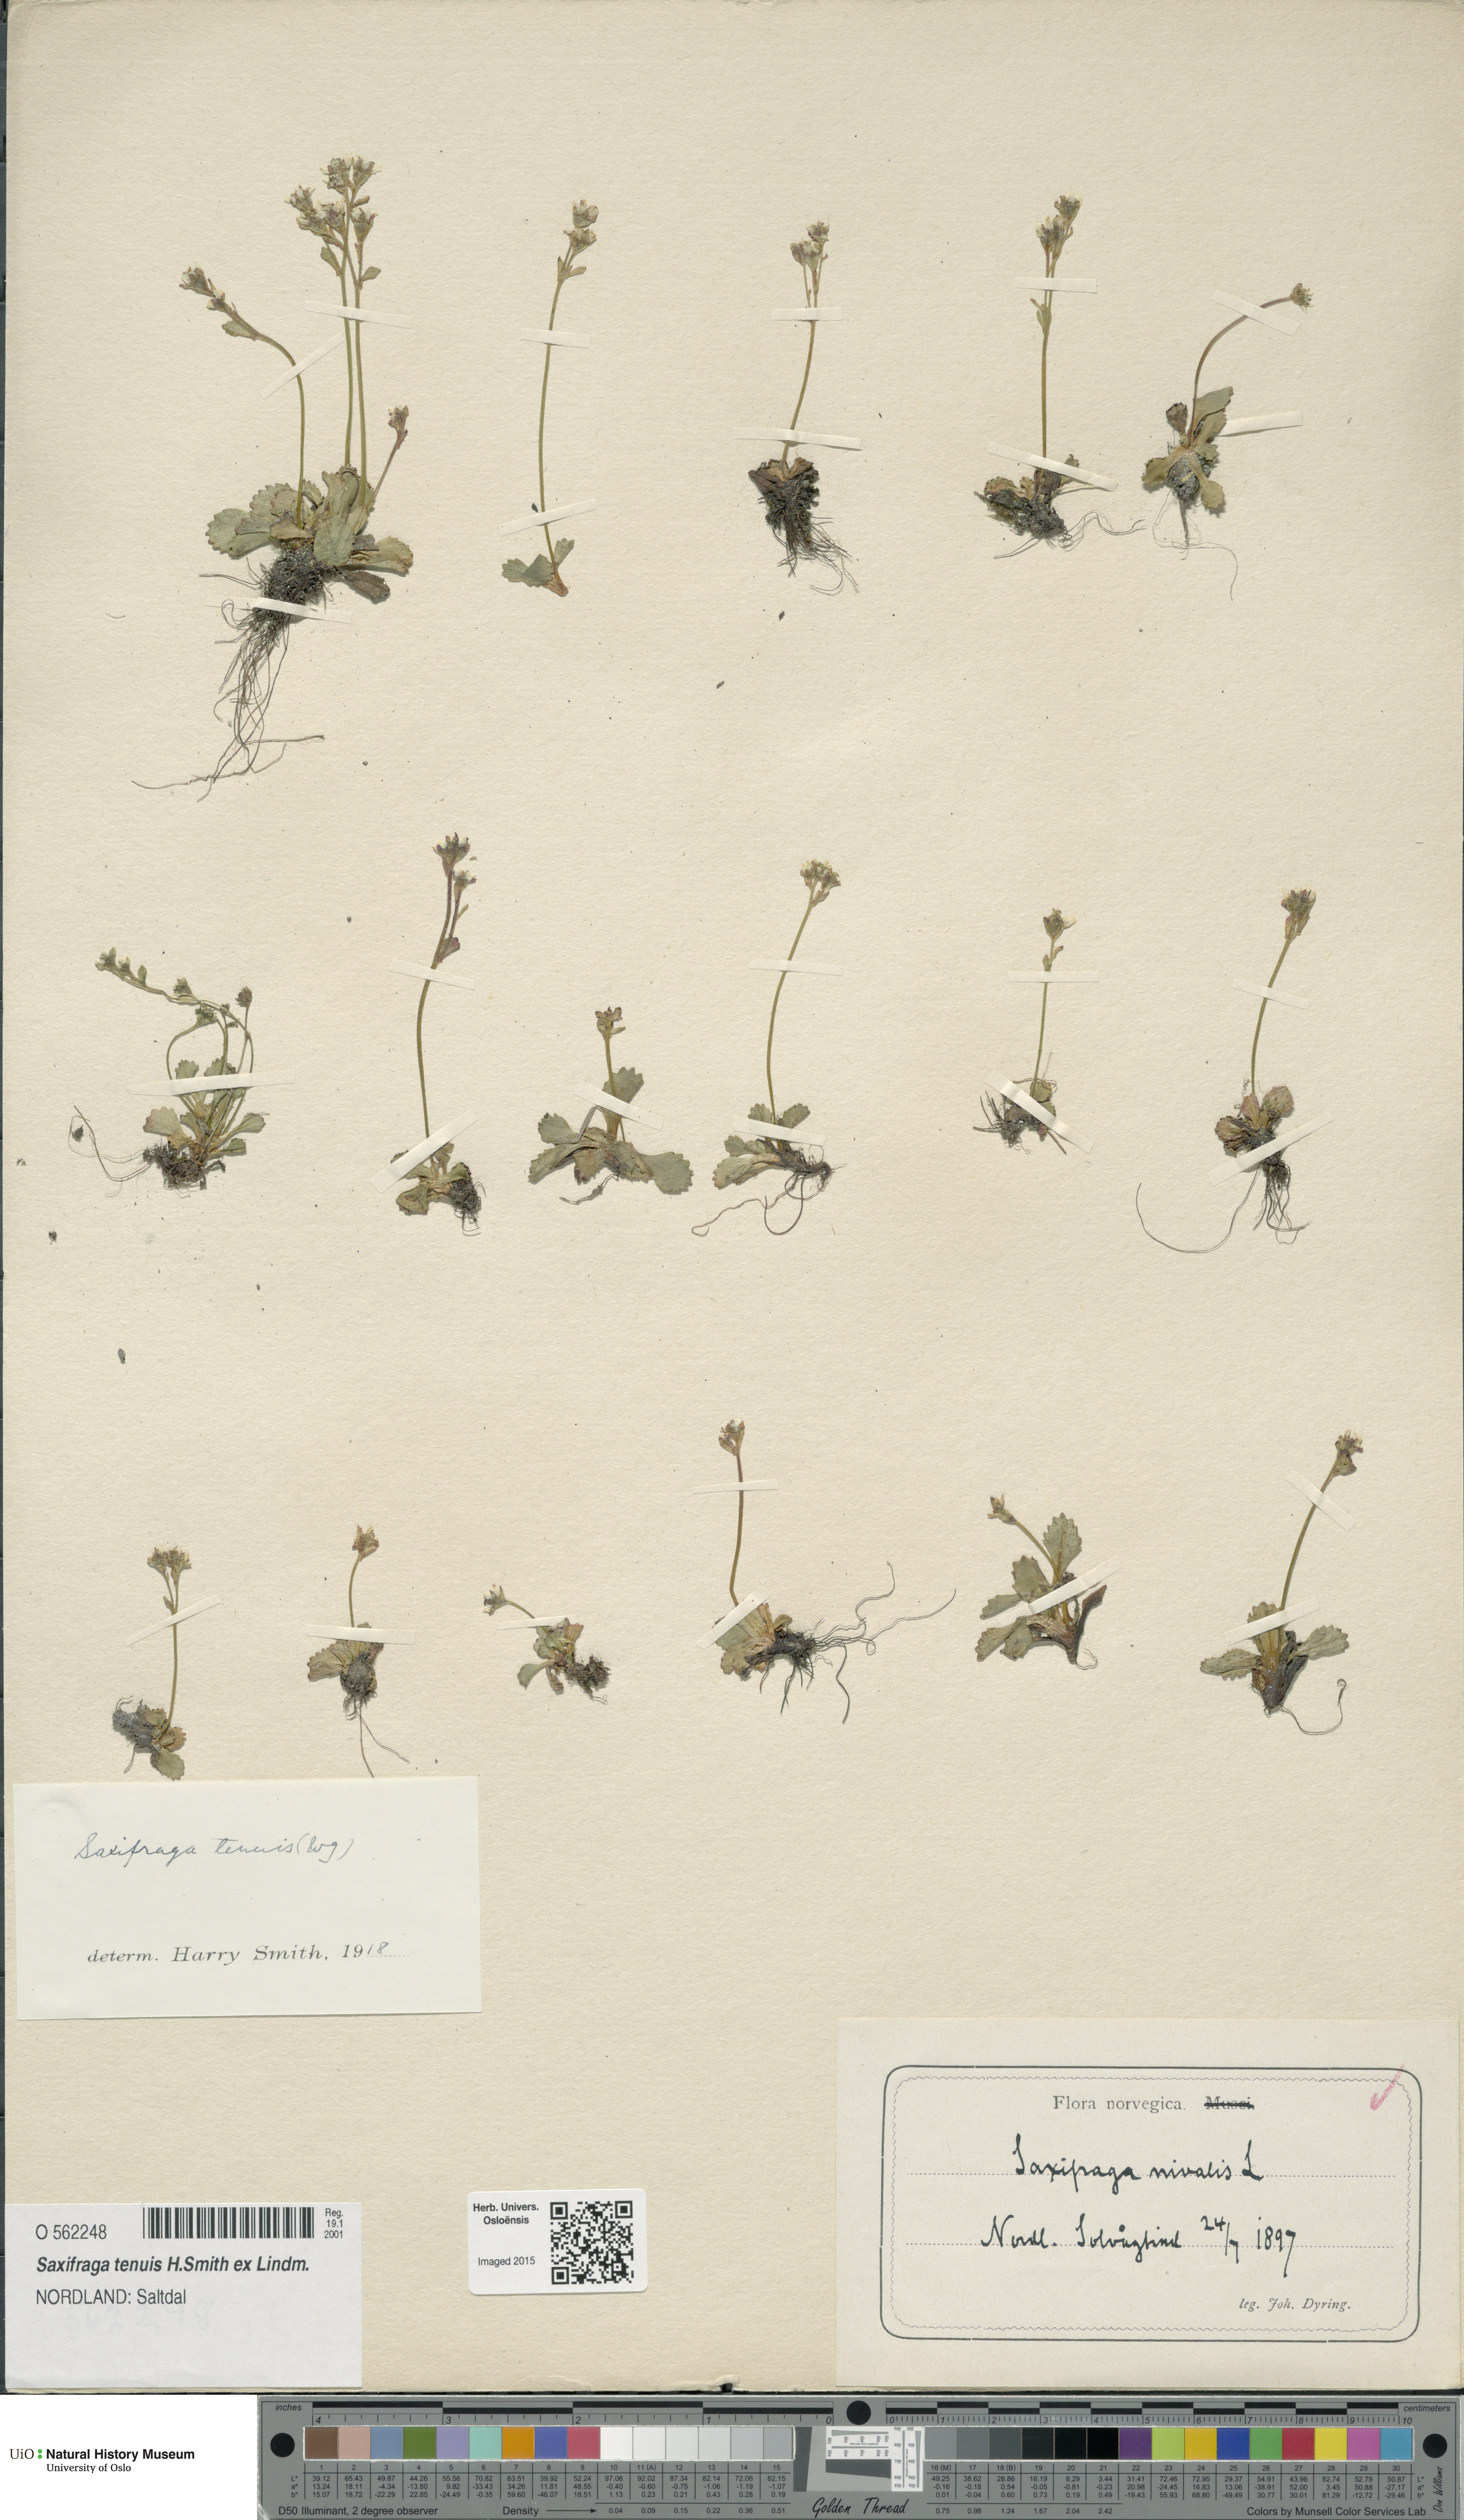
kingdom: Plantae
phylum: Tracheophyta
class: Magnoliopsida
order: Saxifragales
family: Saxifragaceae
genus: Micranthes
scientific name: Micranthes tenuis
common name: Ottertail pass saxifrage
